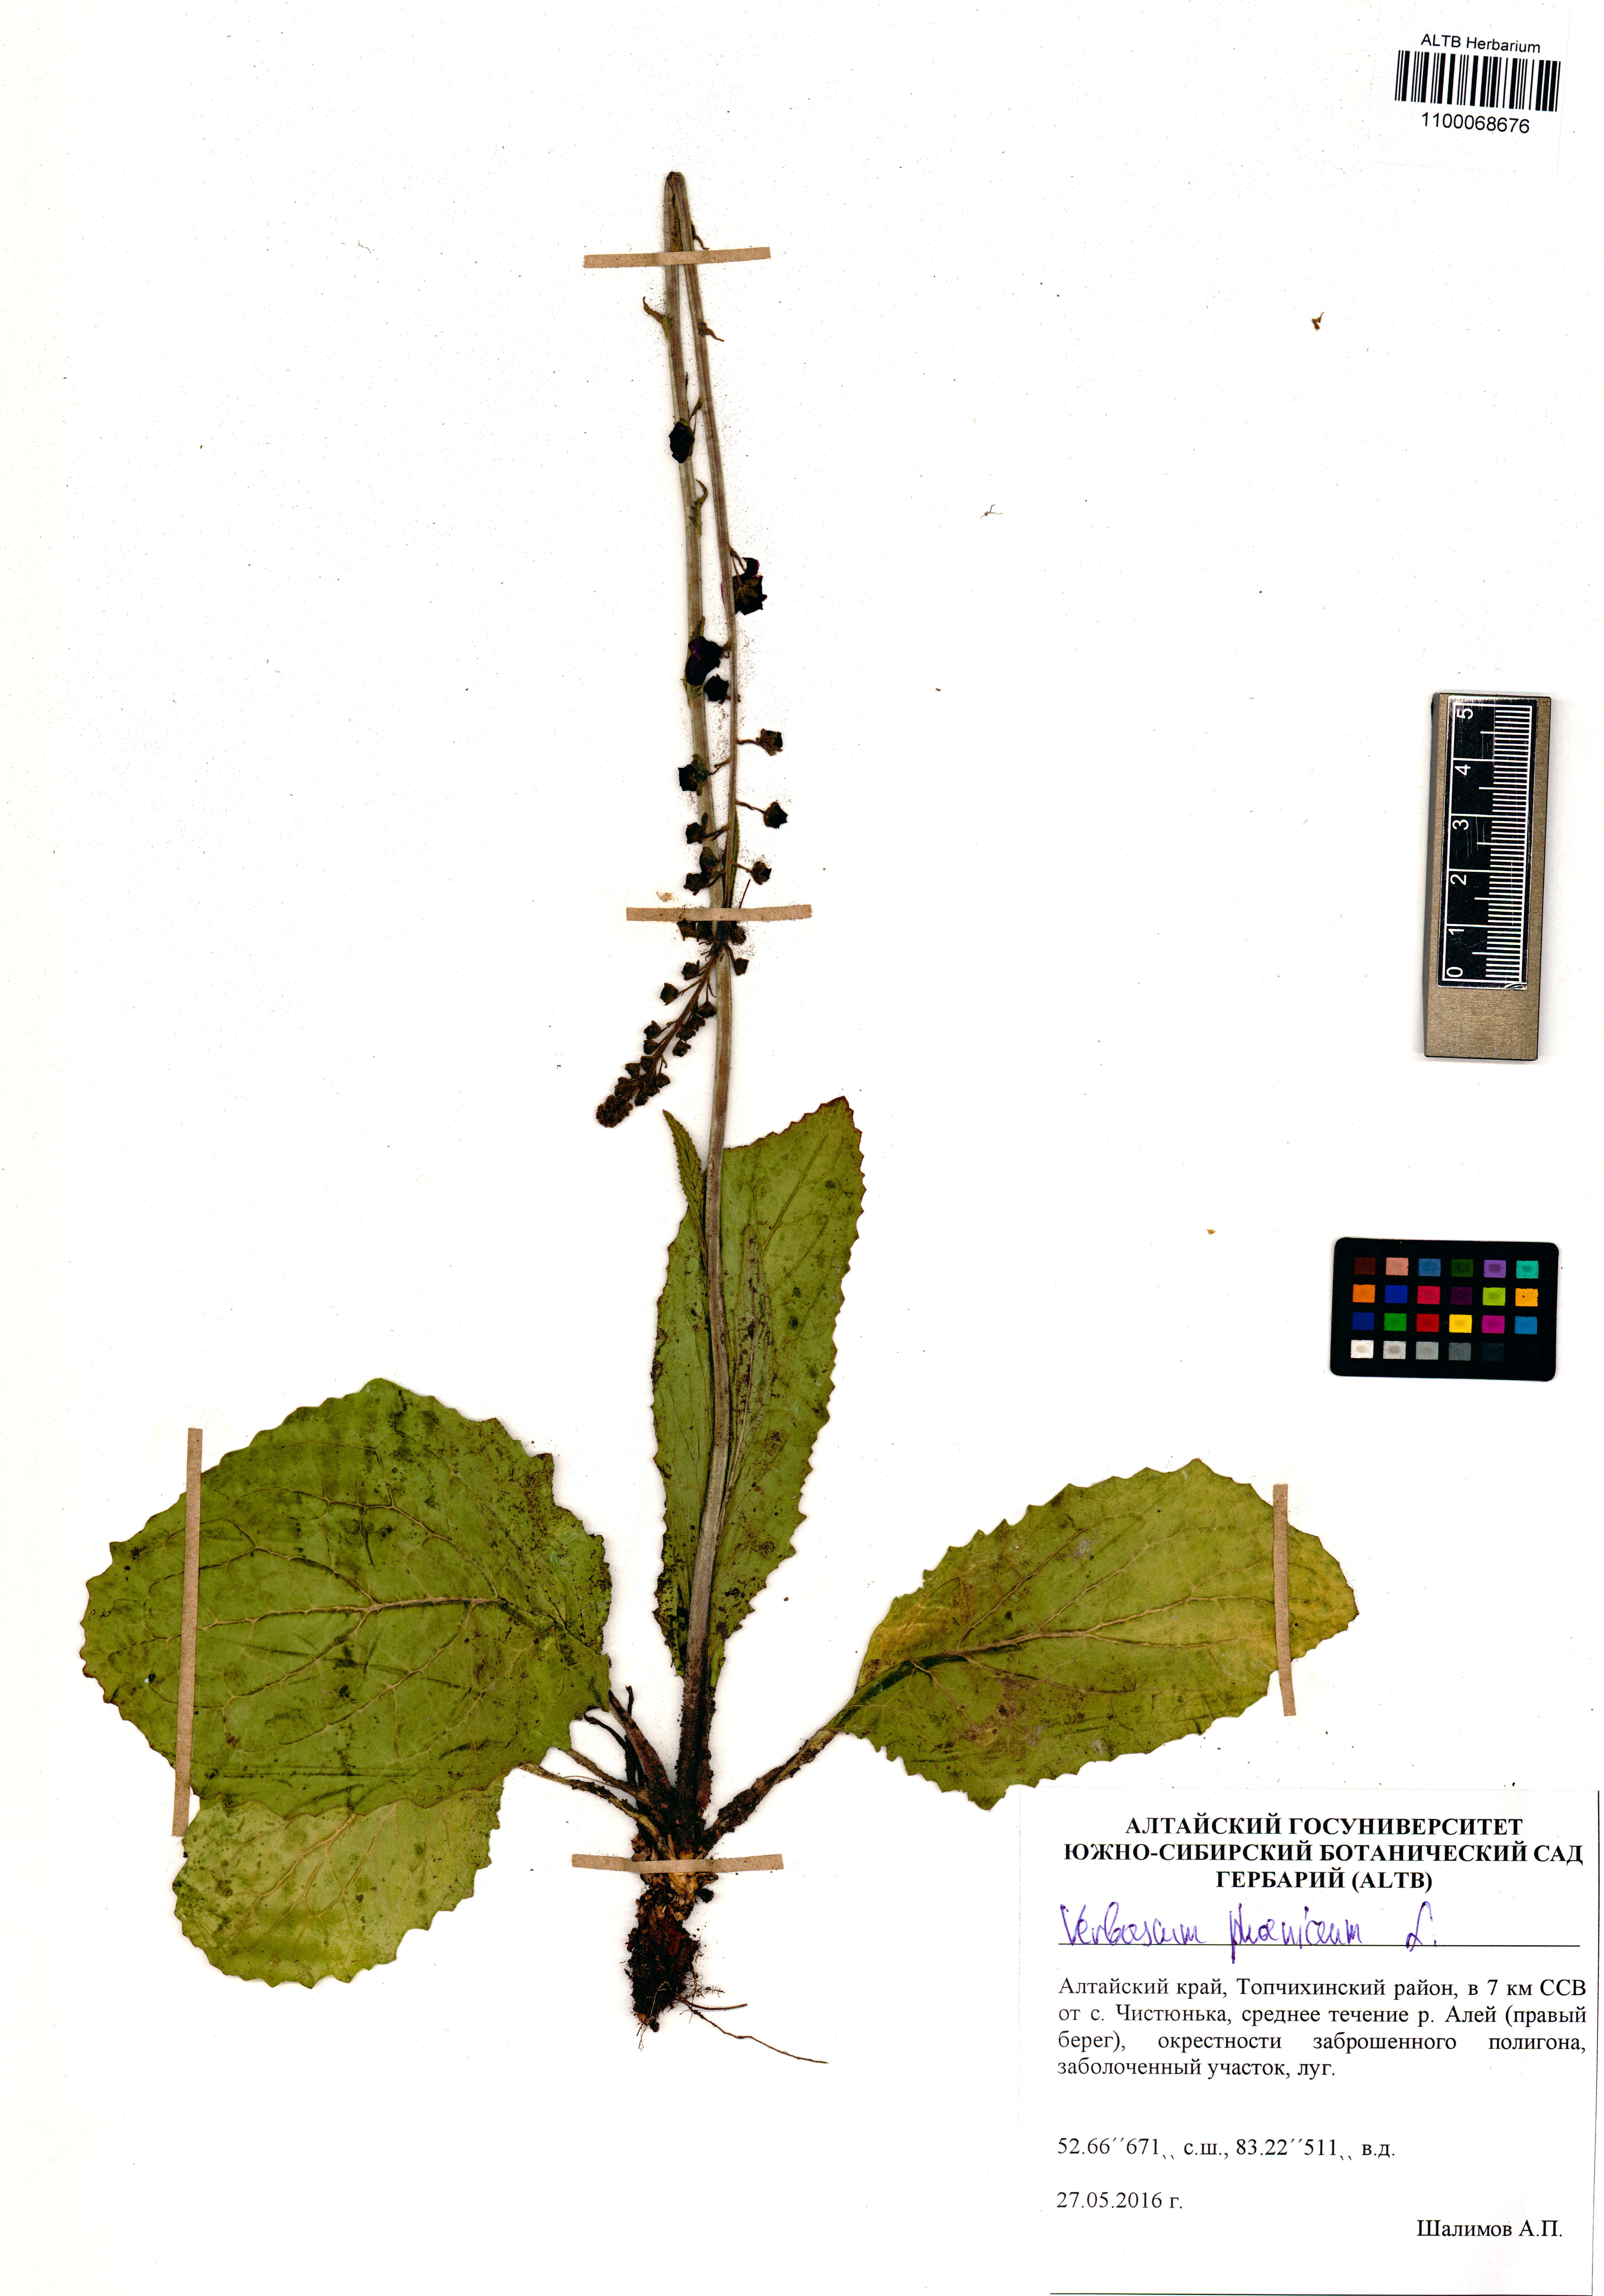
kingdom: Plantae
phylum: Tracheophyta
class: Magnoliopsida
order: Lamiales
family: Scrophulariaceae
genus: Verbascum
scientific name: Verbascum phoeniceum
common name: Purple mullein
